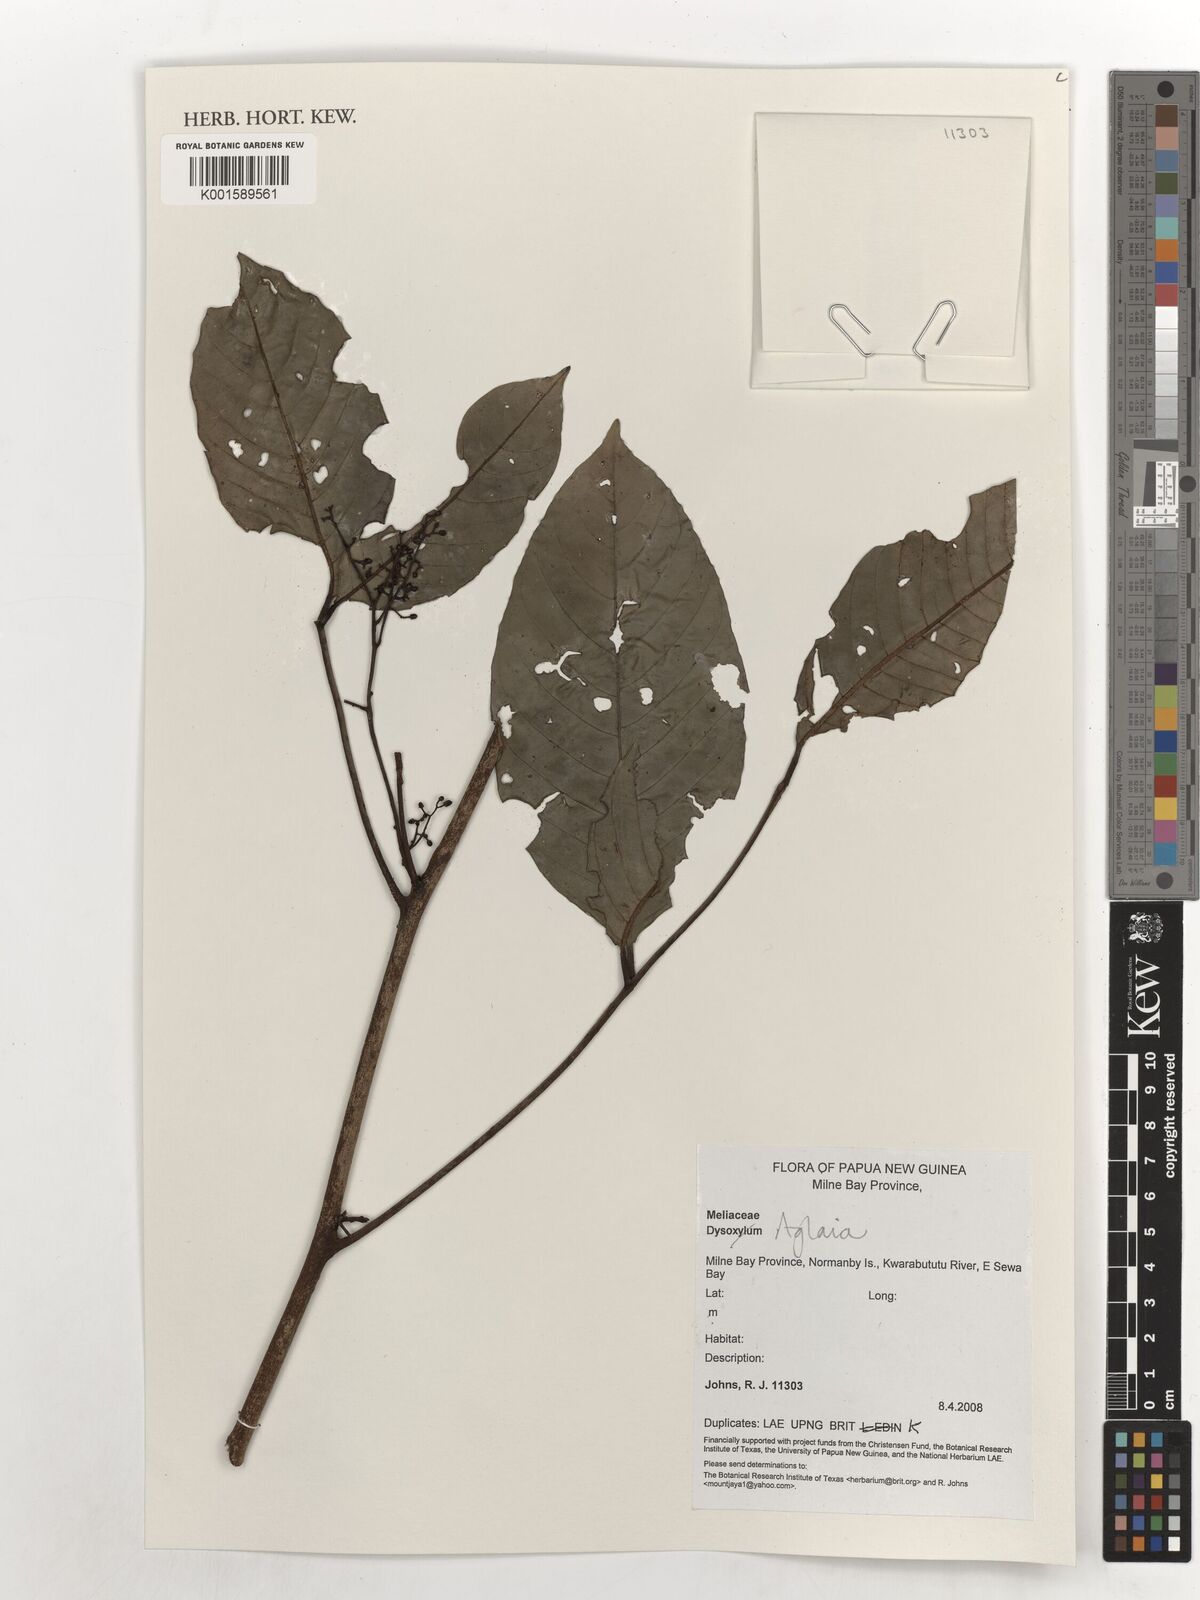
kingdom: Plantae
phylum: Tracheophyta
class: Magnoliopsida
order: Sapindales
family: Meliaceae
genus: Aglaia
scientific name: Aglaia
